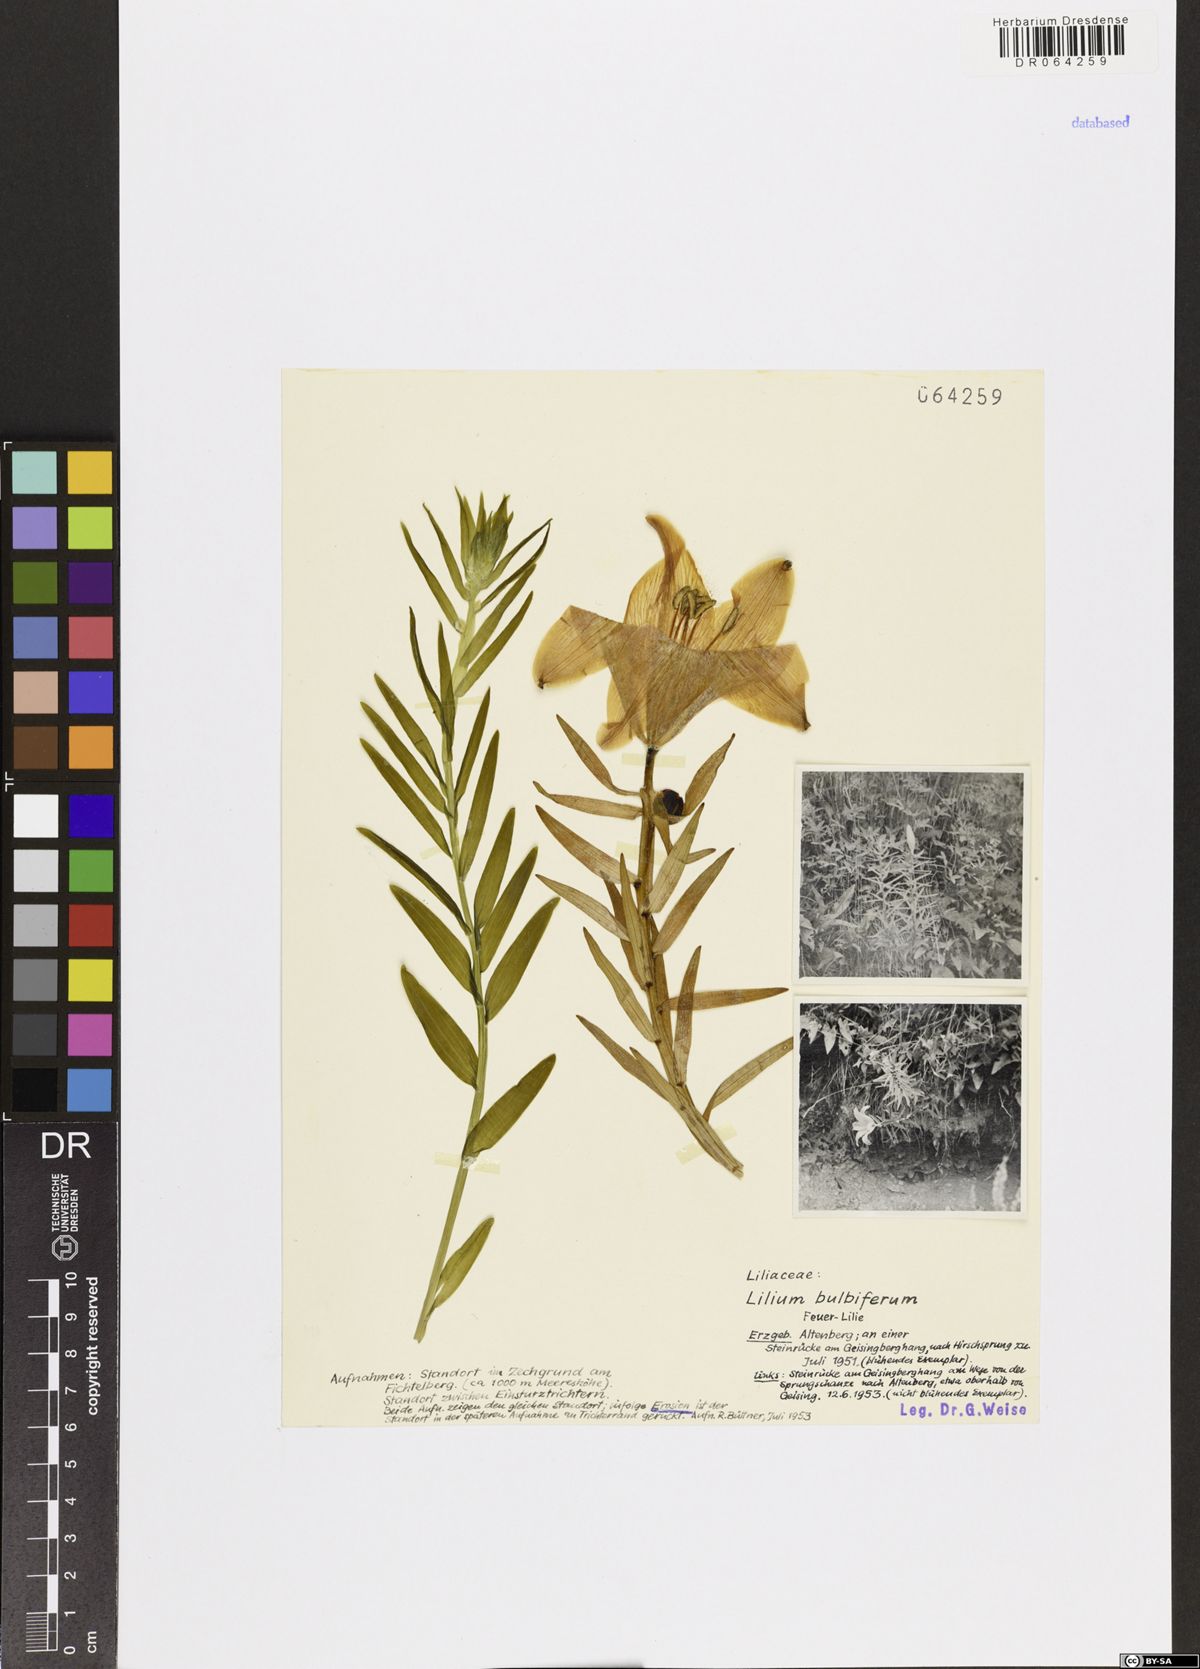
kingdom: Plantae
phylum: Tracheophyta
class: Liliopsida
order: Liliales
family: Liliaceae
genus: Lilium
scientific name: Lilium bulbiferum
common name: Orange lily
